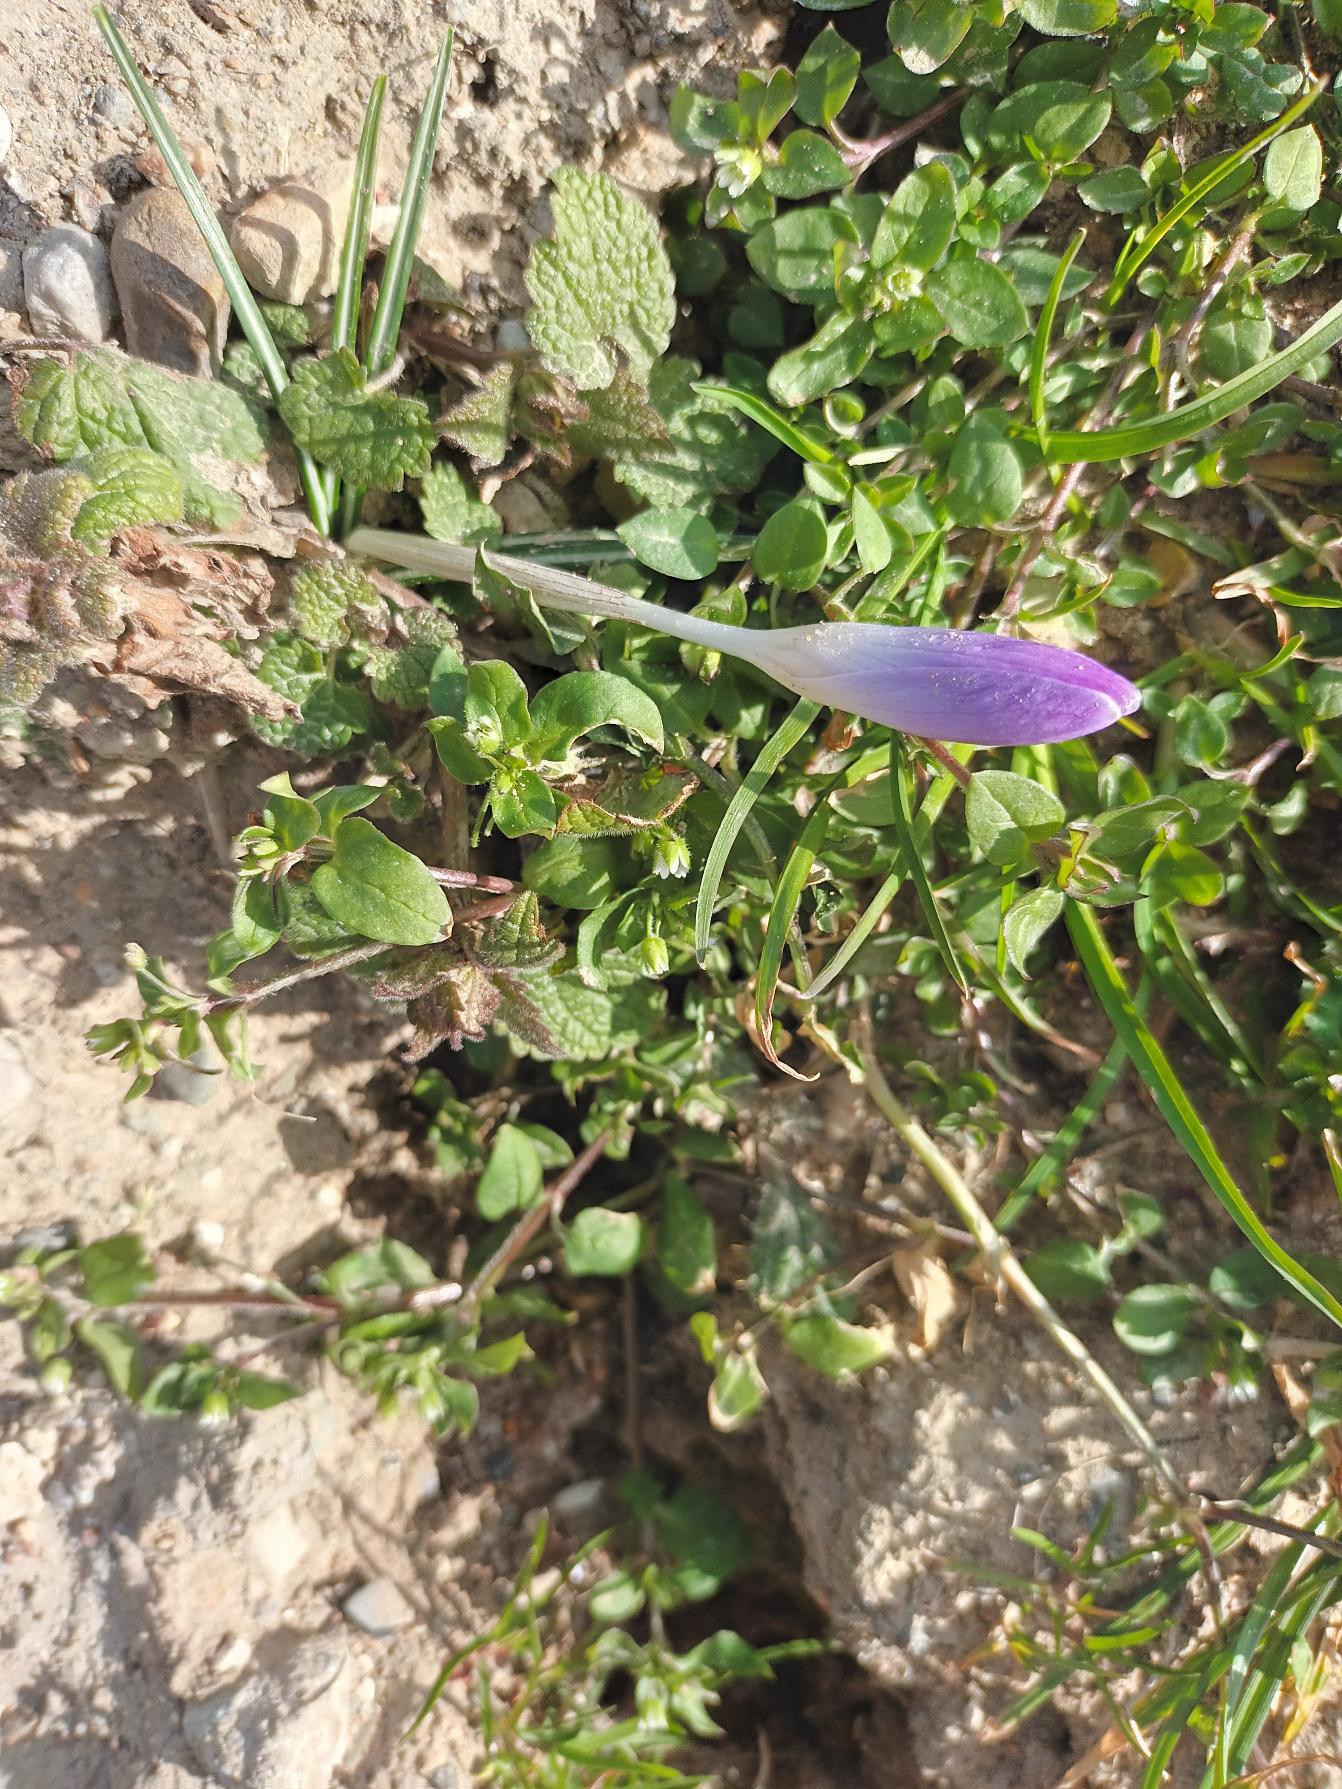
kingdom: Plantae
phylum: Tracheophyta
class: Liliopsida
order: Asparagales
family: Iridaceae
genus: Crocus
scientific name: Crocus tommasinianus
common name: Sne-krokus
